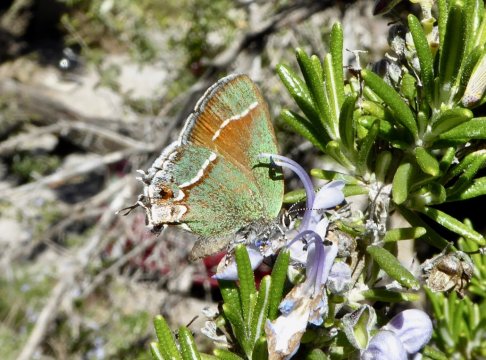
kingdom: Animalia
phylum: Arthropoda
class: Insecta
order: Lepidoptera
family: Lycaenidae
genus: Mitoura
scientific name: Mitoura gryneus
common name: Juniper Hairstreak
